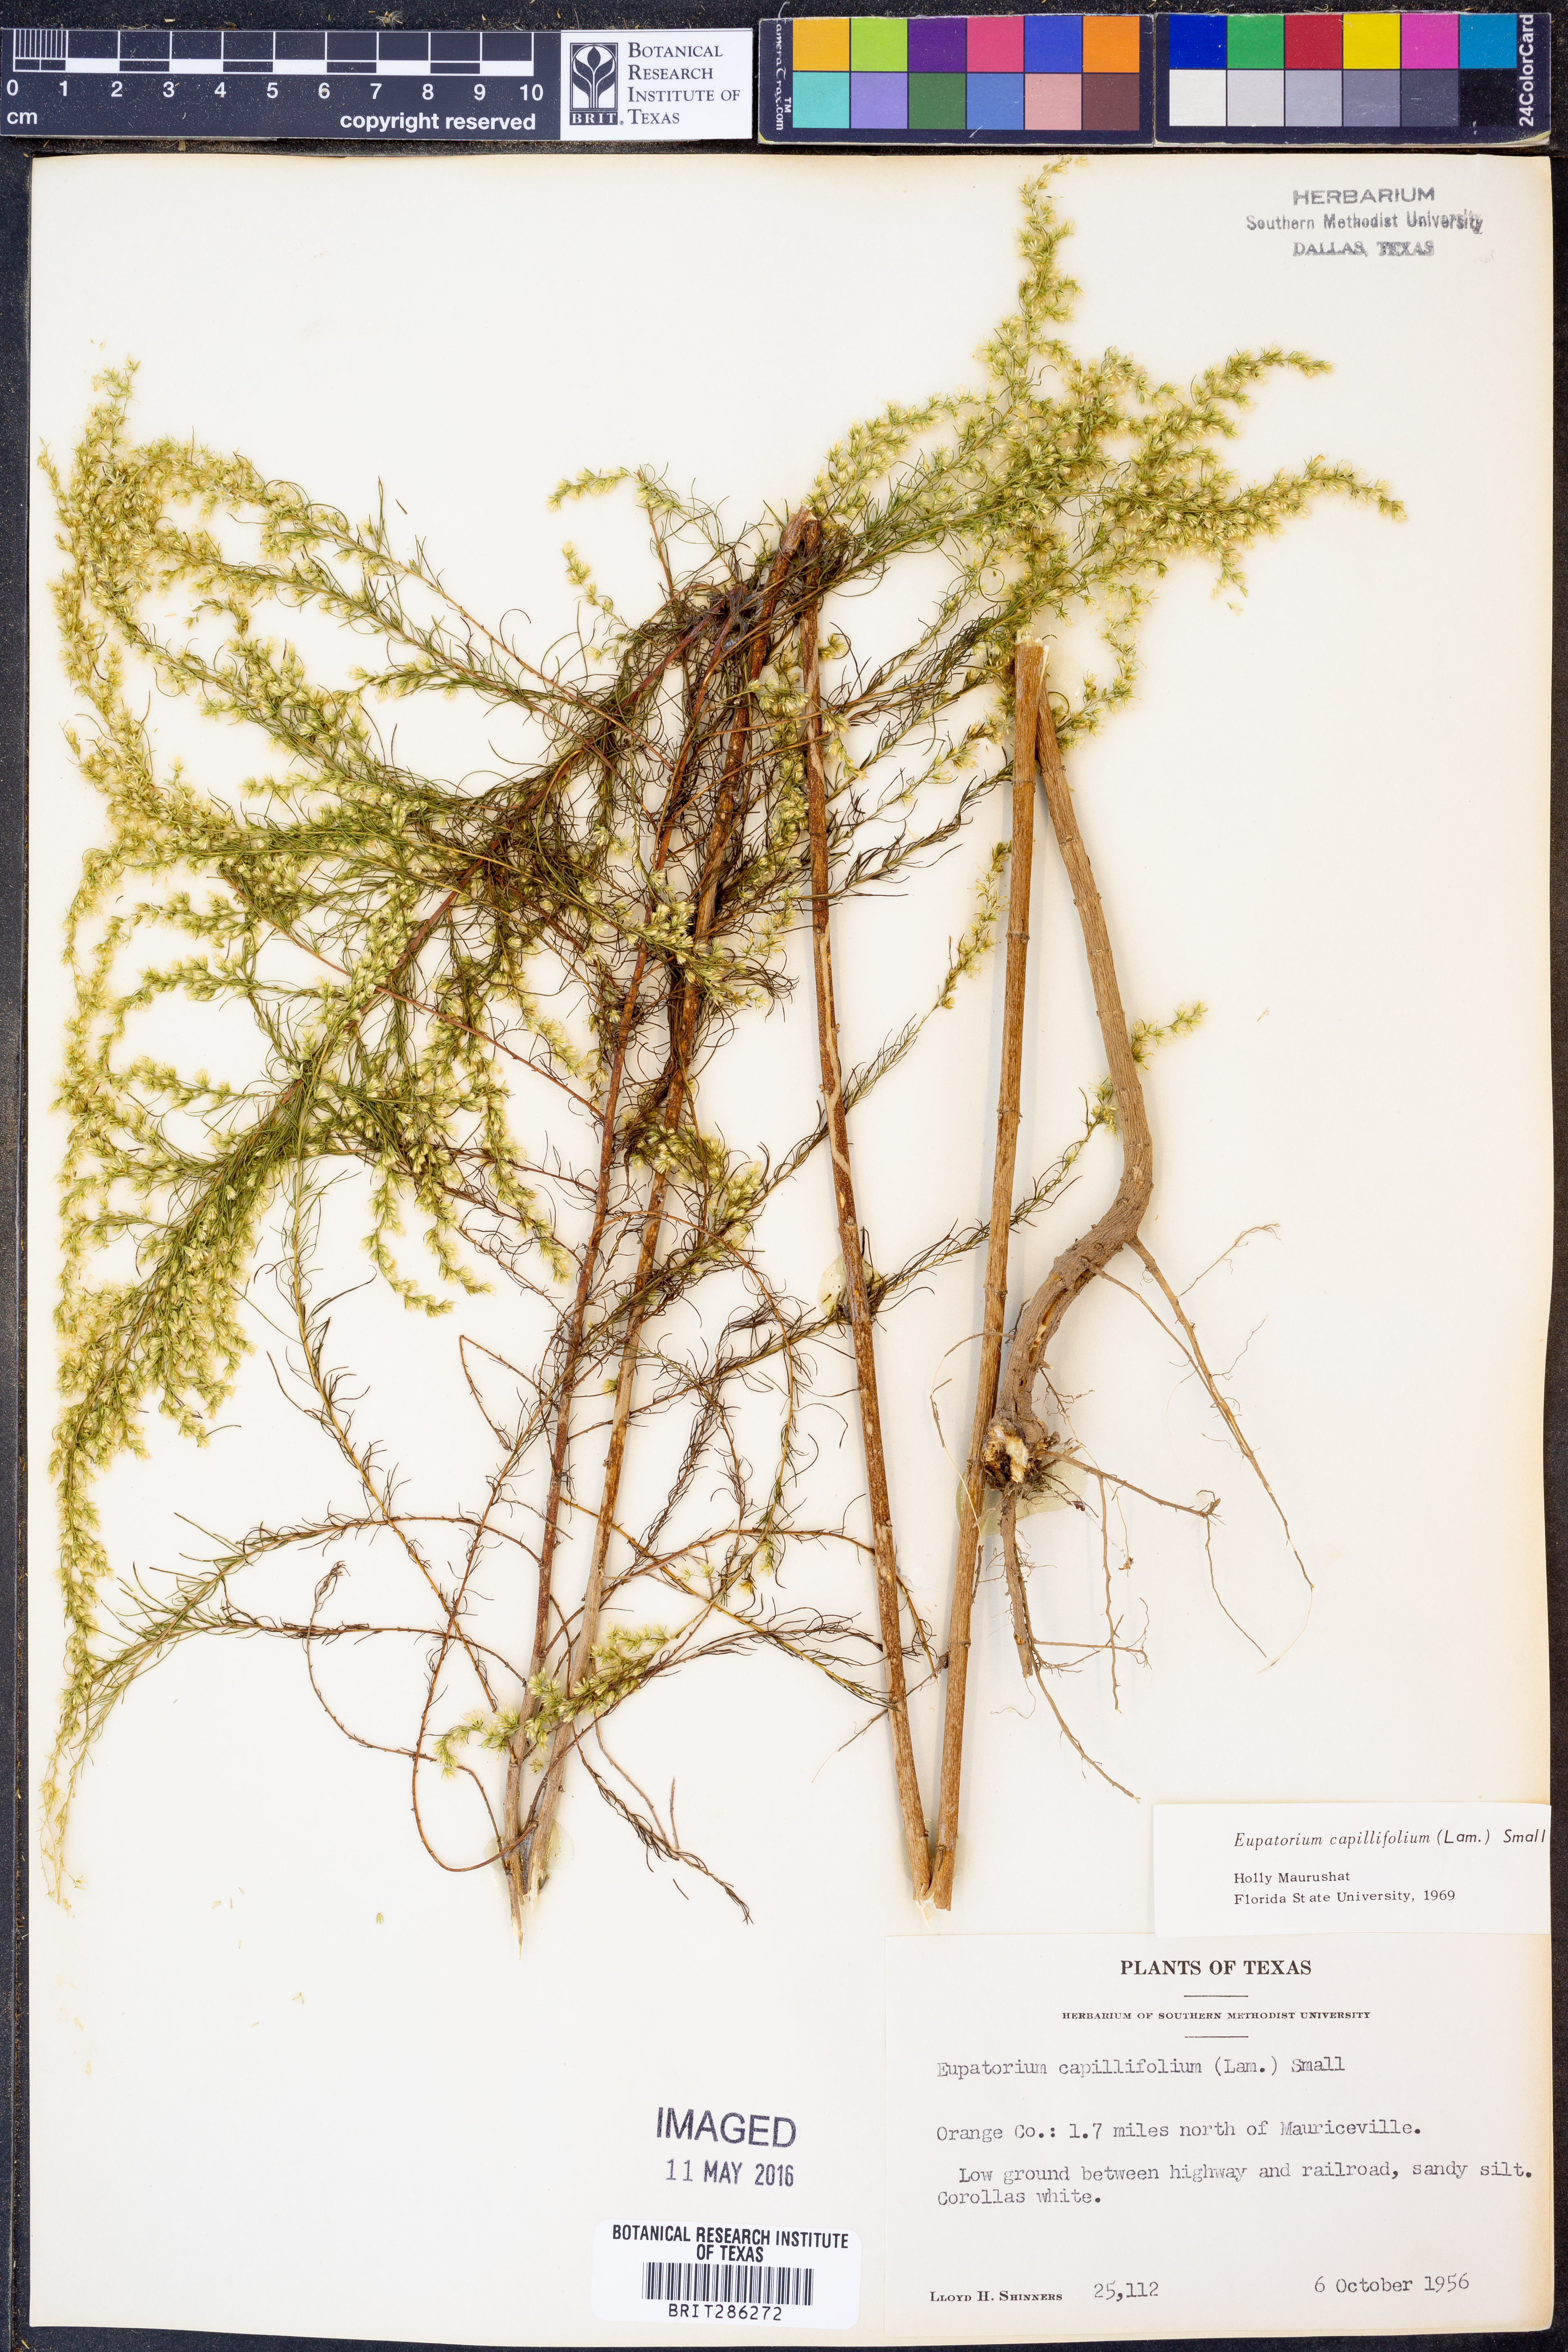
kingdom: Plantae
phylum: Tracheophyta
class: Magnoliopsida
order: Asterales
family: Asteraceae
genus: Eupatorium
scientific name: Eupatorium capillifolium
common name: Dog-fennel
